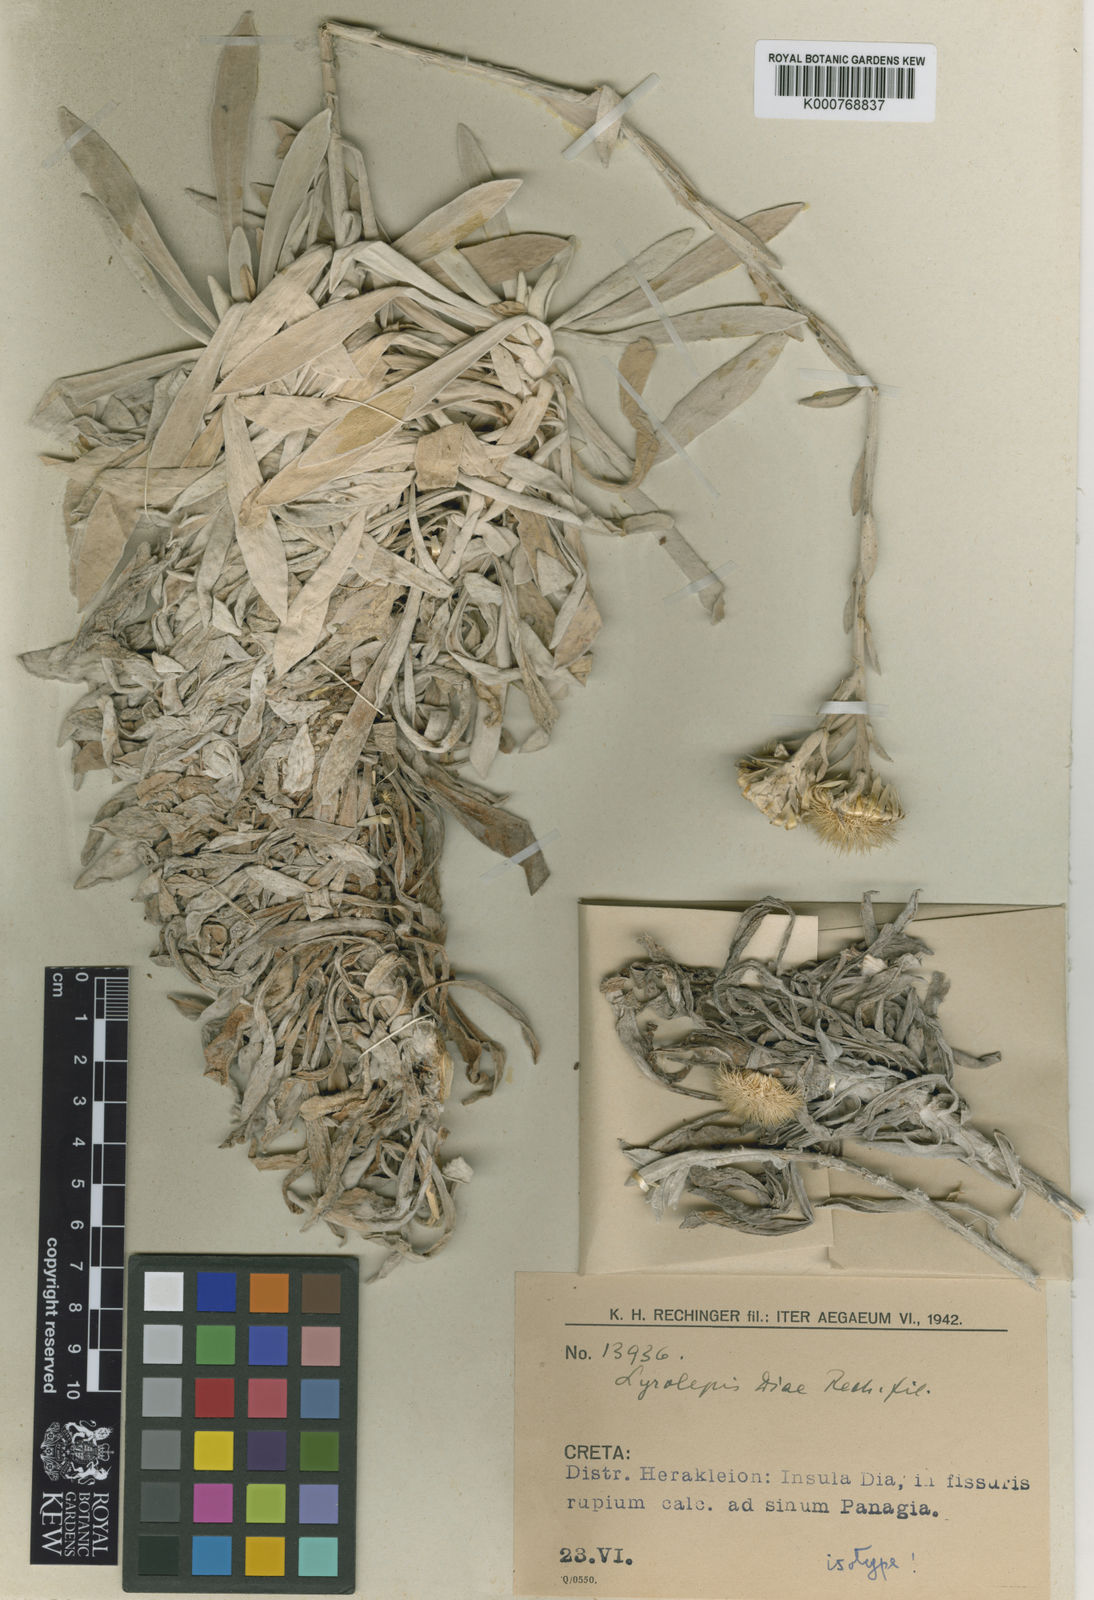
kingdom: Plantae
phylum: Tracheophyta
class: Magnoliopsida
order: Asterales
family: Asteraceae
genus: Carlina
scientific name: Carlina
